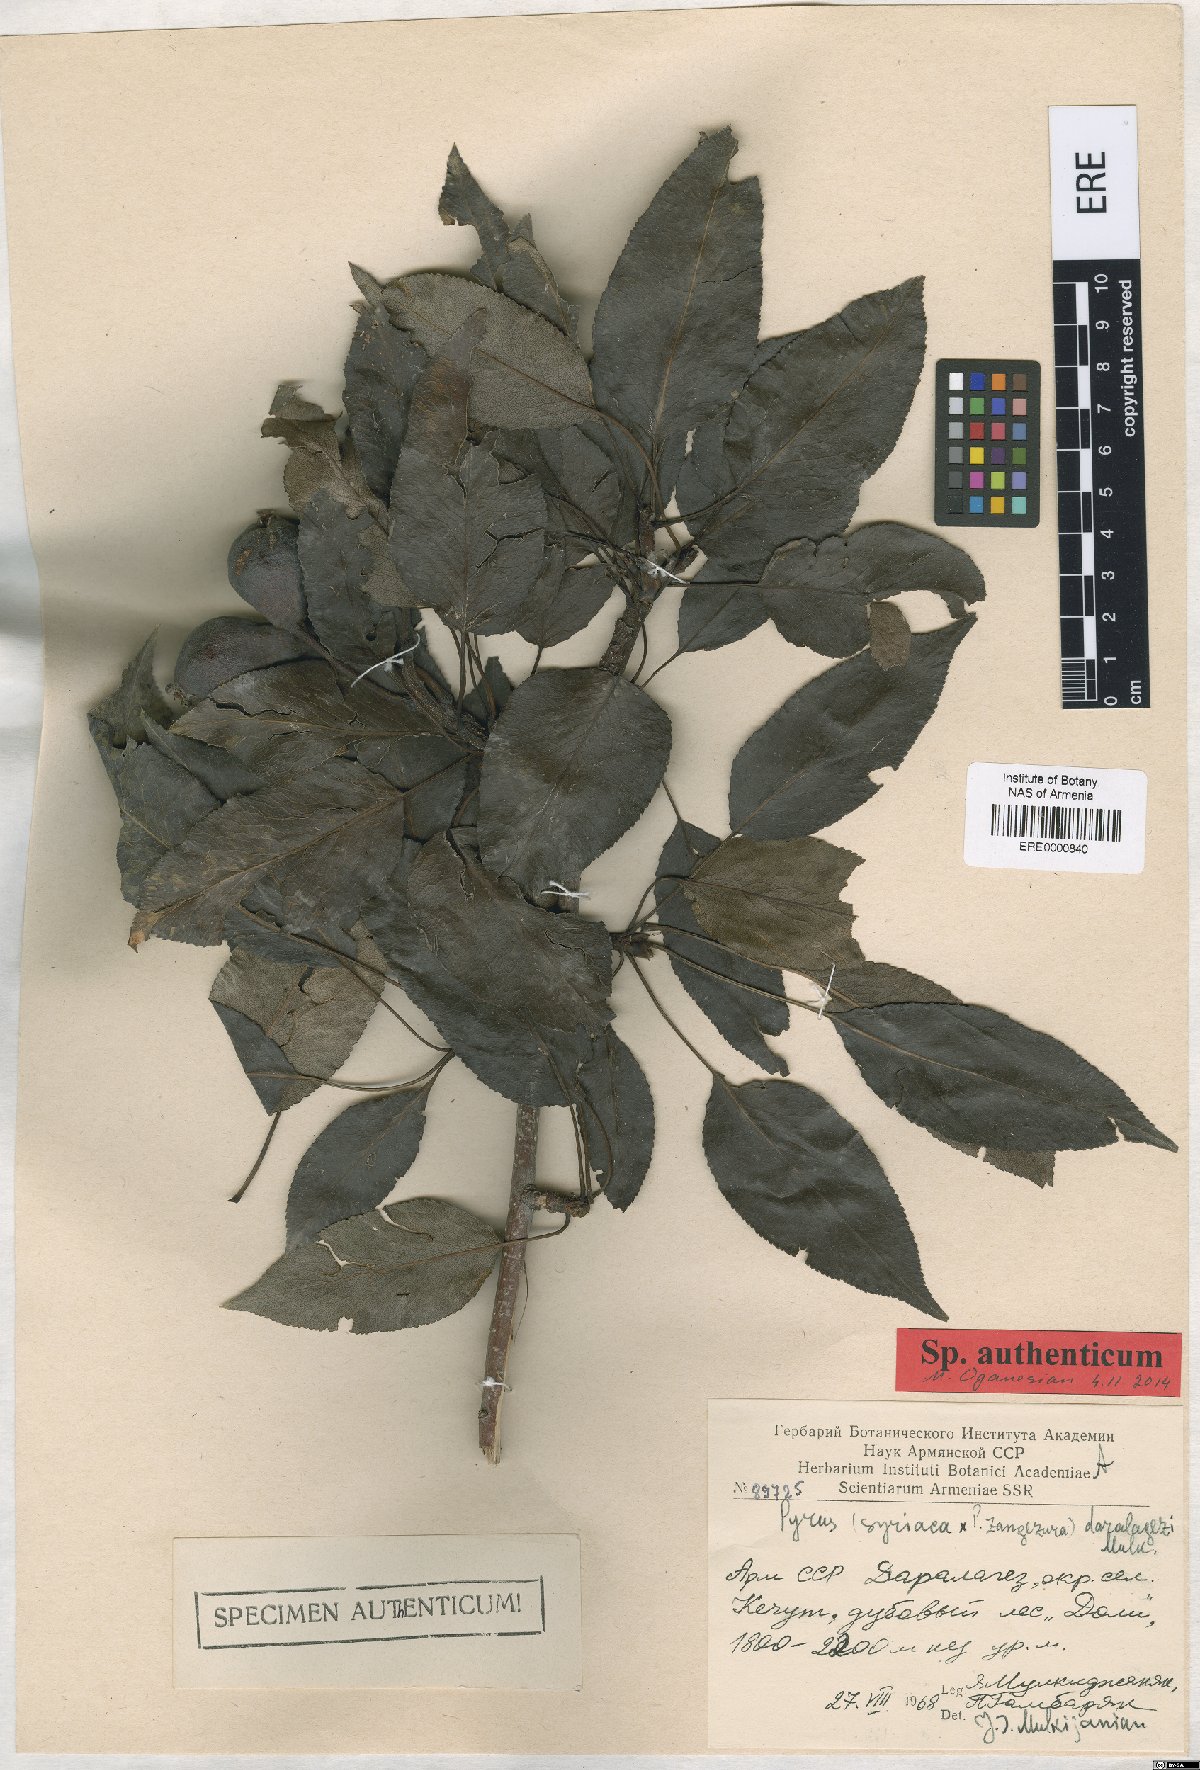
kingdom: Plantae
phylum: Tracheophyta
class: Magnoliopsida
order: Rosales
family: Rosaceae
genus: Pyrus
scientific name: Pyrus daralagezi
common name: Daralagezian pear
